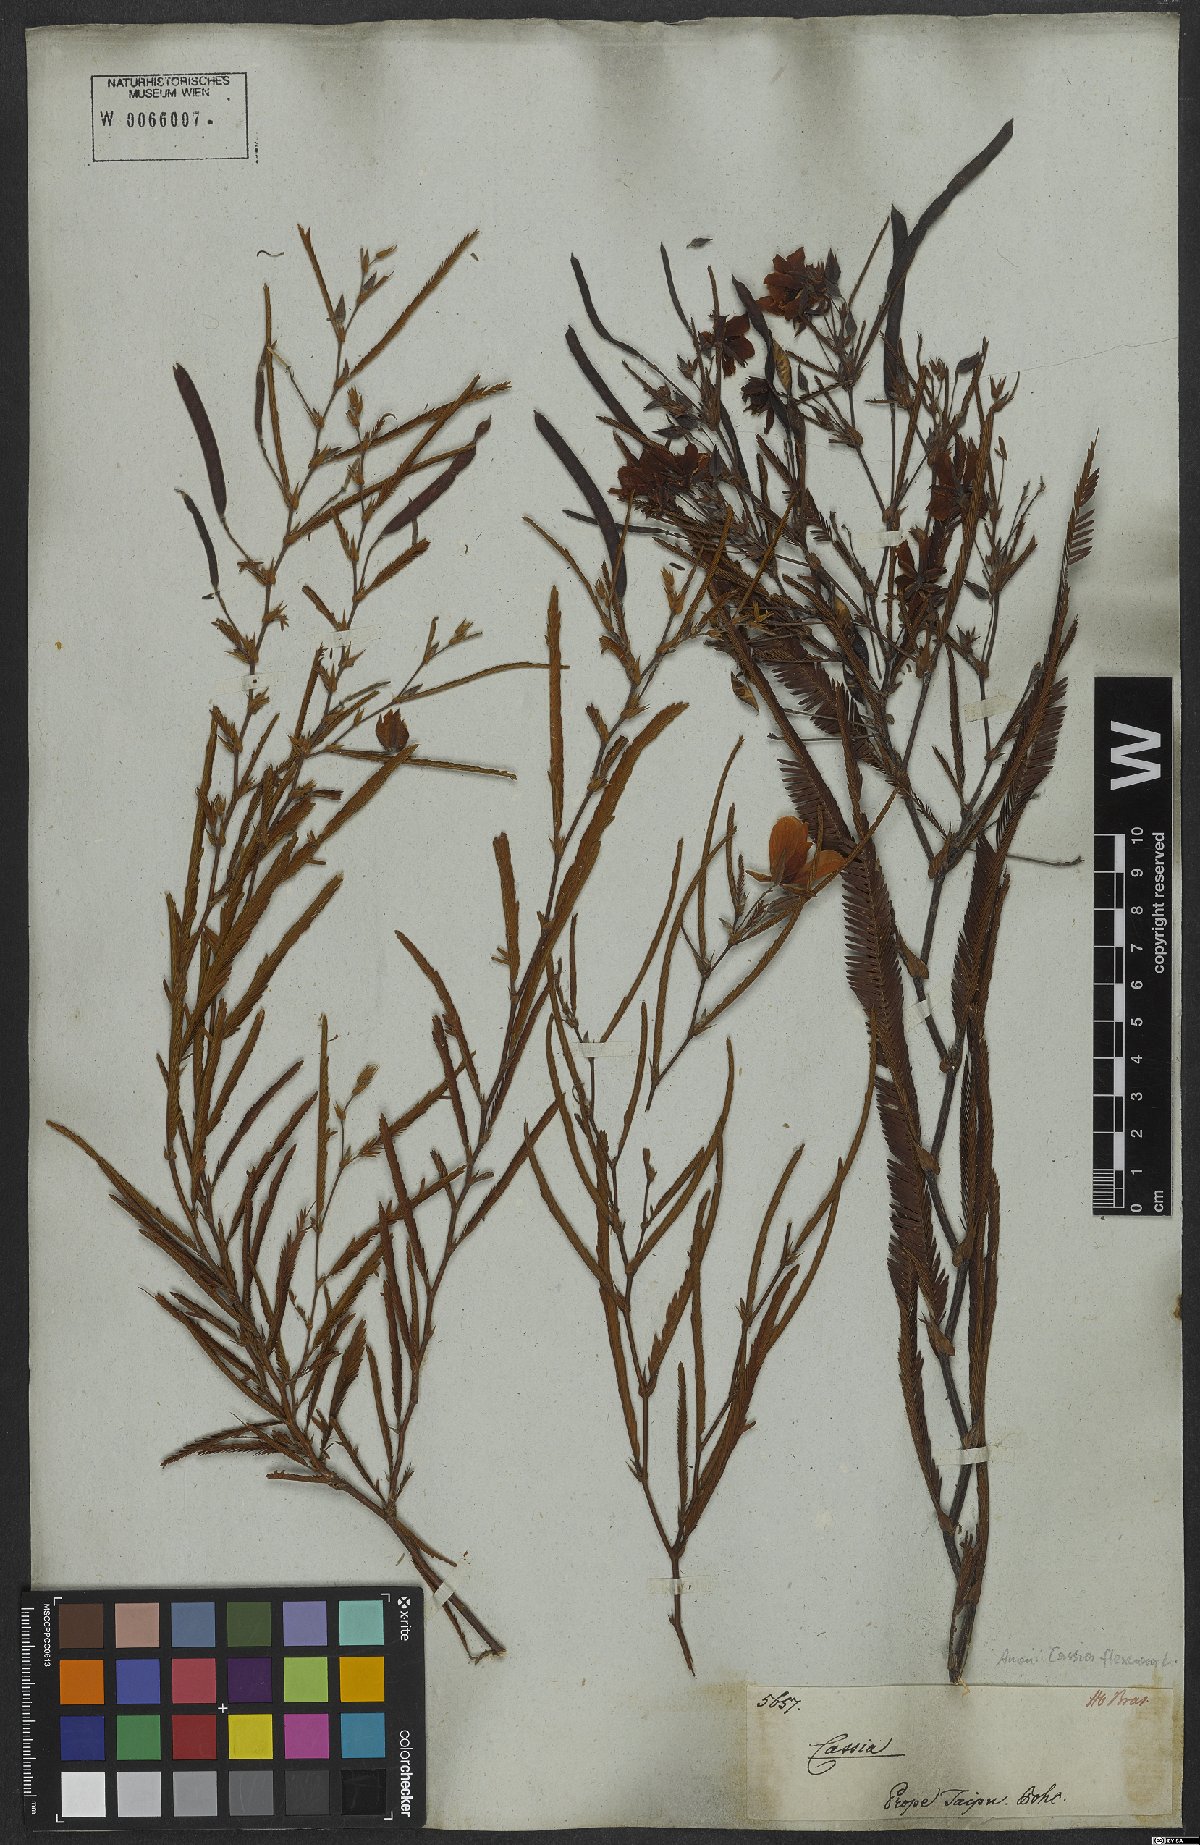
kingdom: Plantae
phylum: Tracheophyta
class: Magnoliopsida
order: Fabales
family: Fabaceae
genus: Chamaecrista
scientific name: Chamaecrista flexuosa
